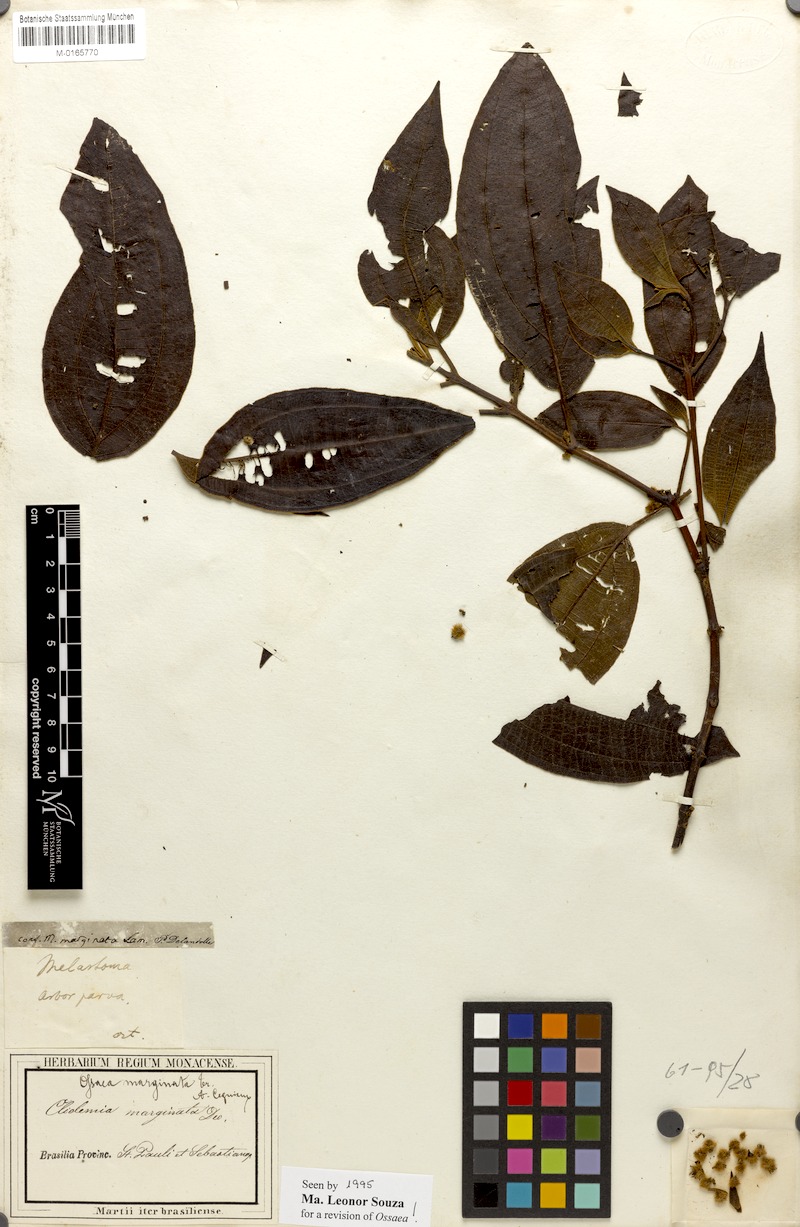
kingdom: Plantae
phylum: Tracheophyta
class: Magnoliopsida
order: Myrtales
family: Melastomataceae
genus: Miconia
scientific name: Miconia leamarginata
